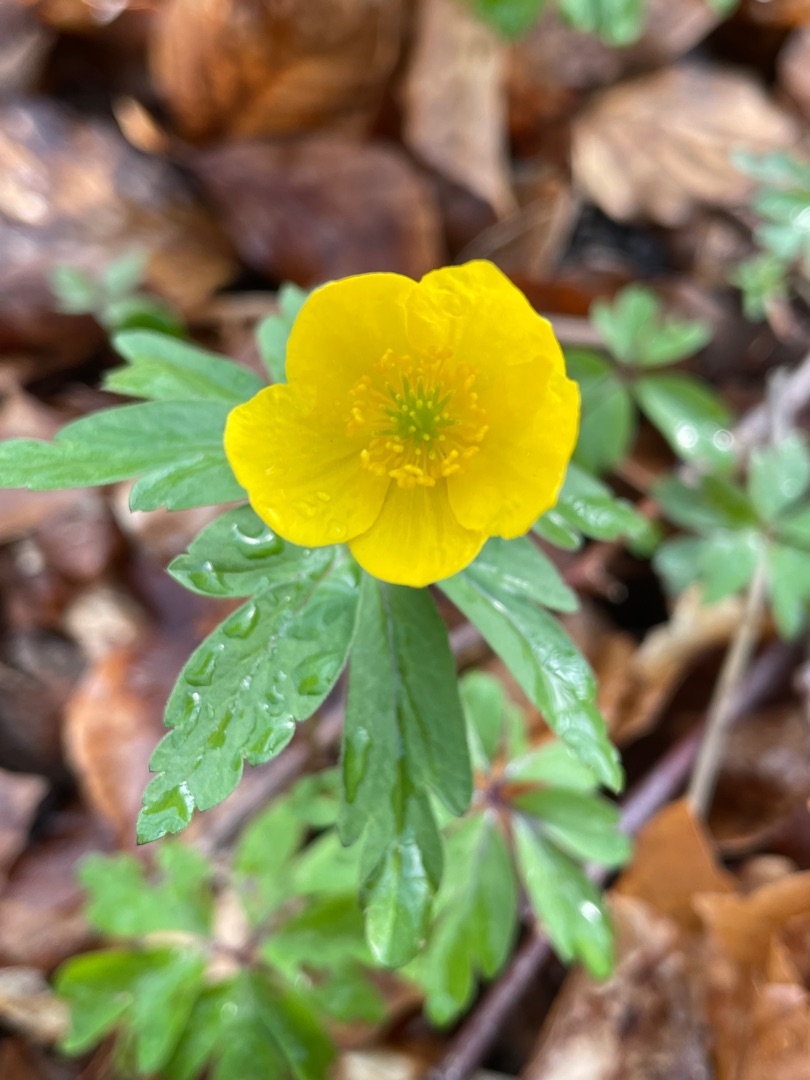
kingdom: Plantae
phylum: Tracheophyta
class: Magnoliopsida
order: Ranunculales
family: Ranunculaceae
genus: Anemone
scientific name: Anemone ranunculoides
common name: Gul anemone
